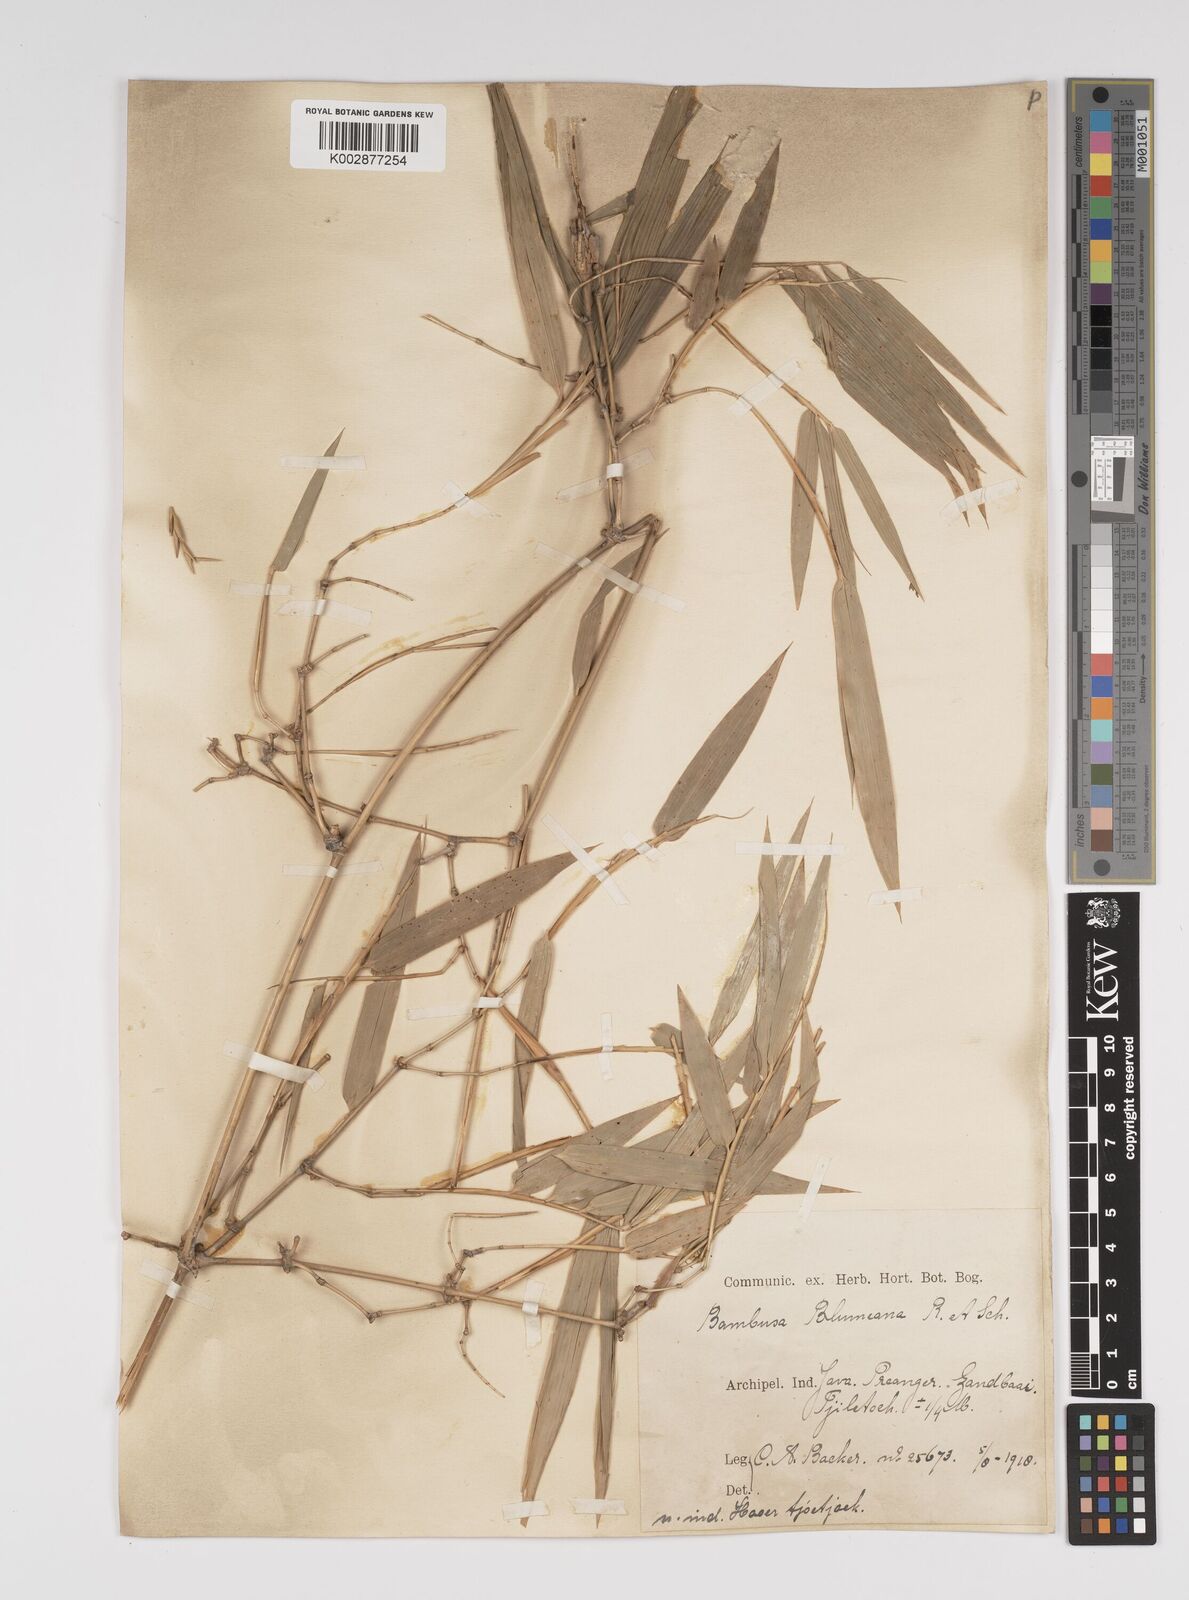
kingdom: Plantae
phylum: Tracheophyta
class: Liliopsida
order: Poales
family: Poaceae
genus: Bambusa
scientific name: Bambusa spinosa
